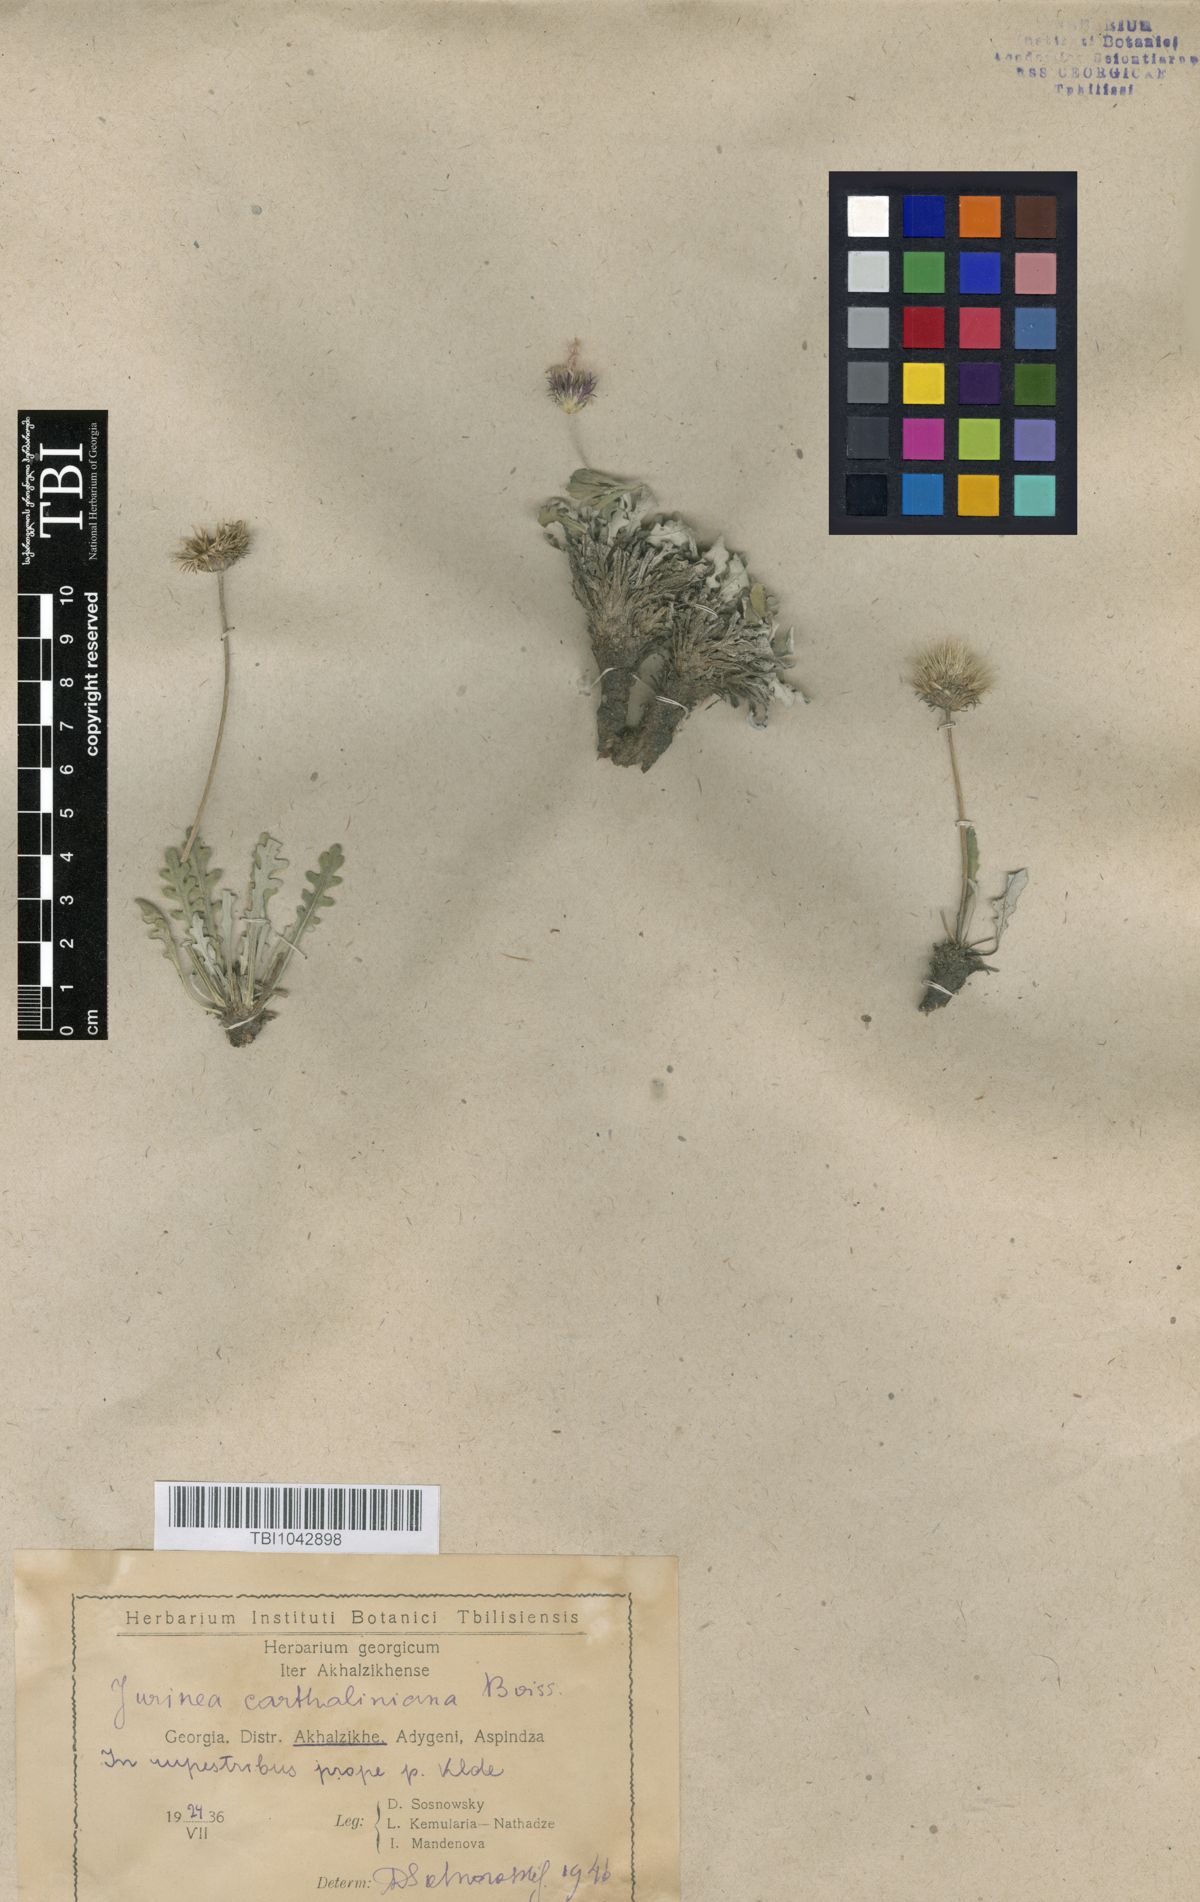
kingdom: Plantae
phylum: Tracheophyta
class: Magnoliopsida
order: Asterales
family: Asteraceae
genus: Jurinea
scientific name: Jurinea cartaliniana
